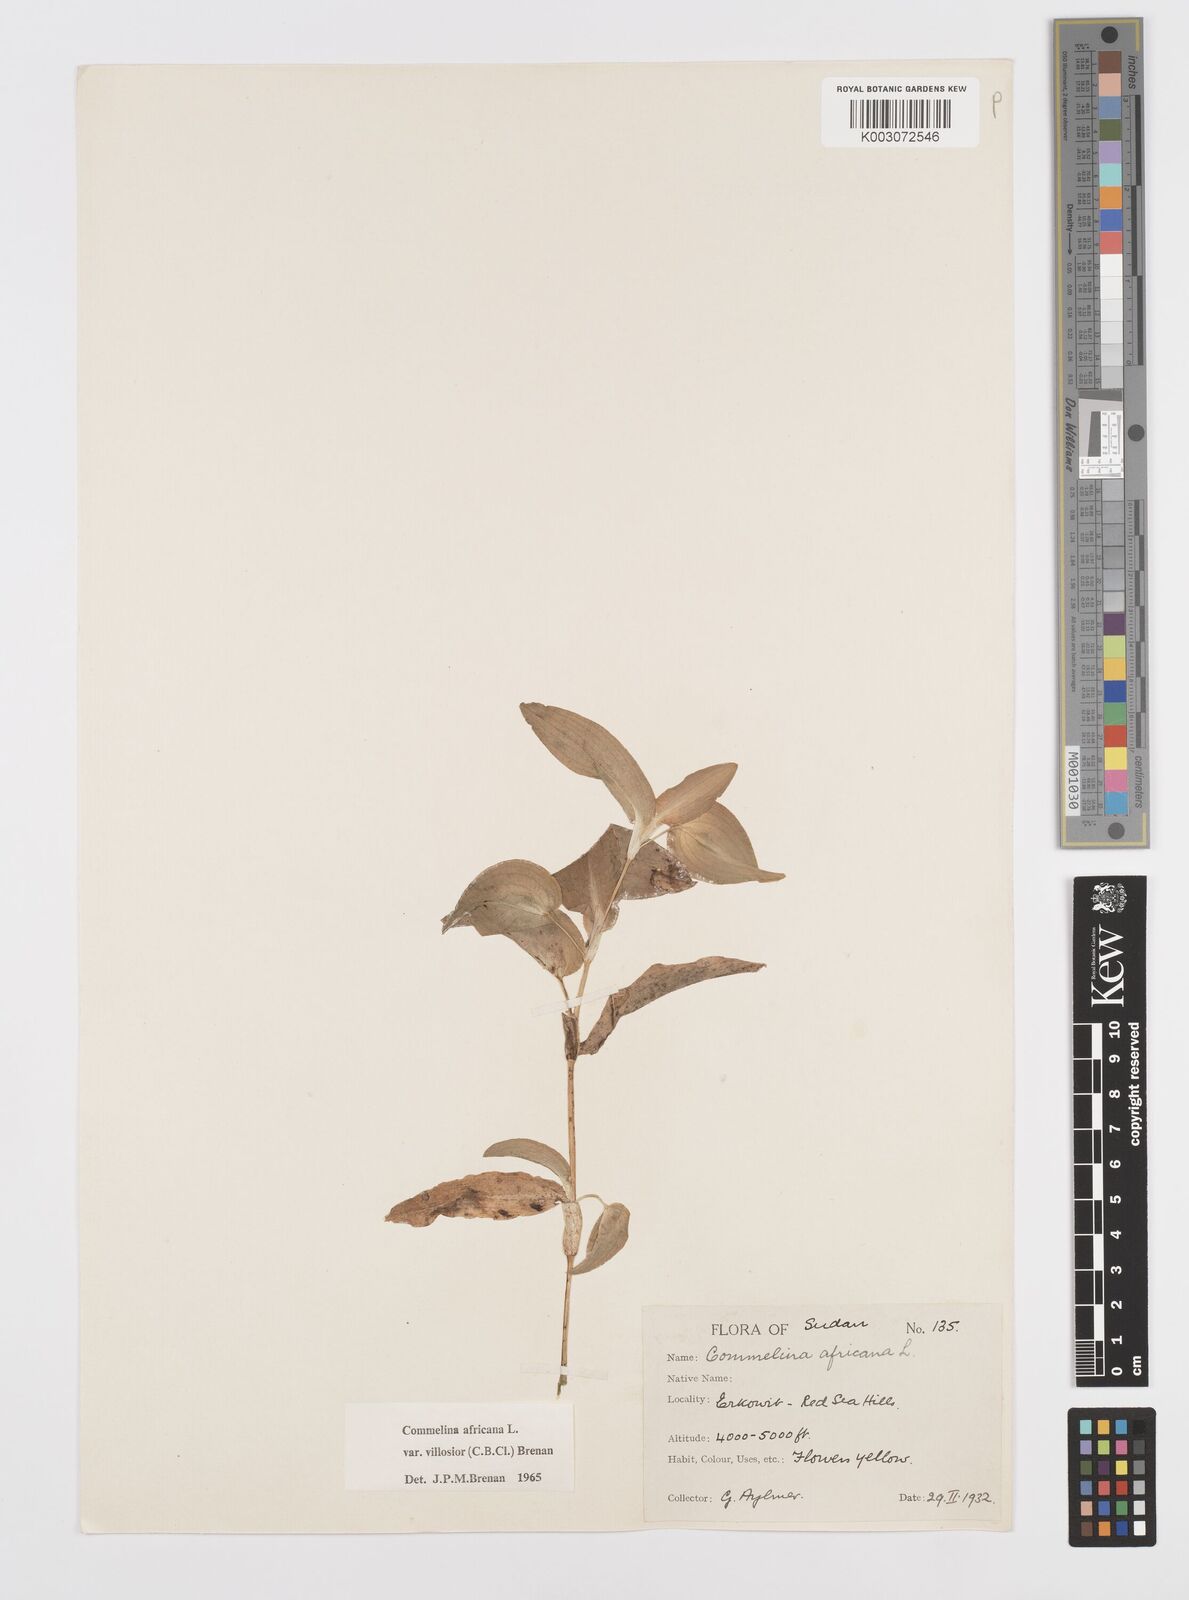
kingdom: Plantae
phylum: Tracheophyta
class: Liliopsida
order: Commelinales
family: Commelinaceae
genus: Commelina
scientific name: Commelina africana
